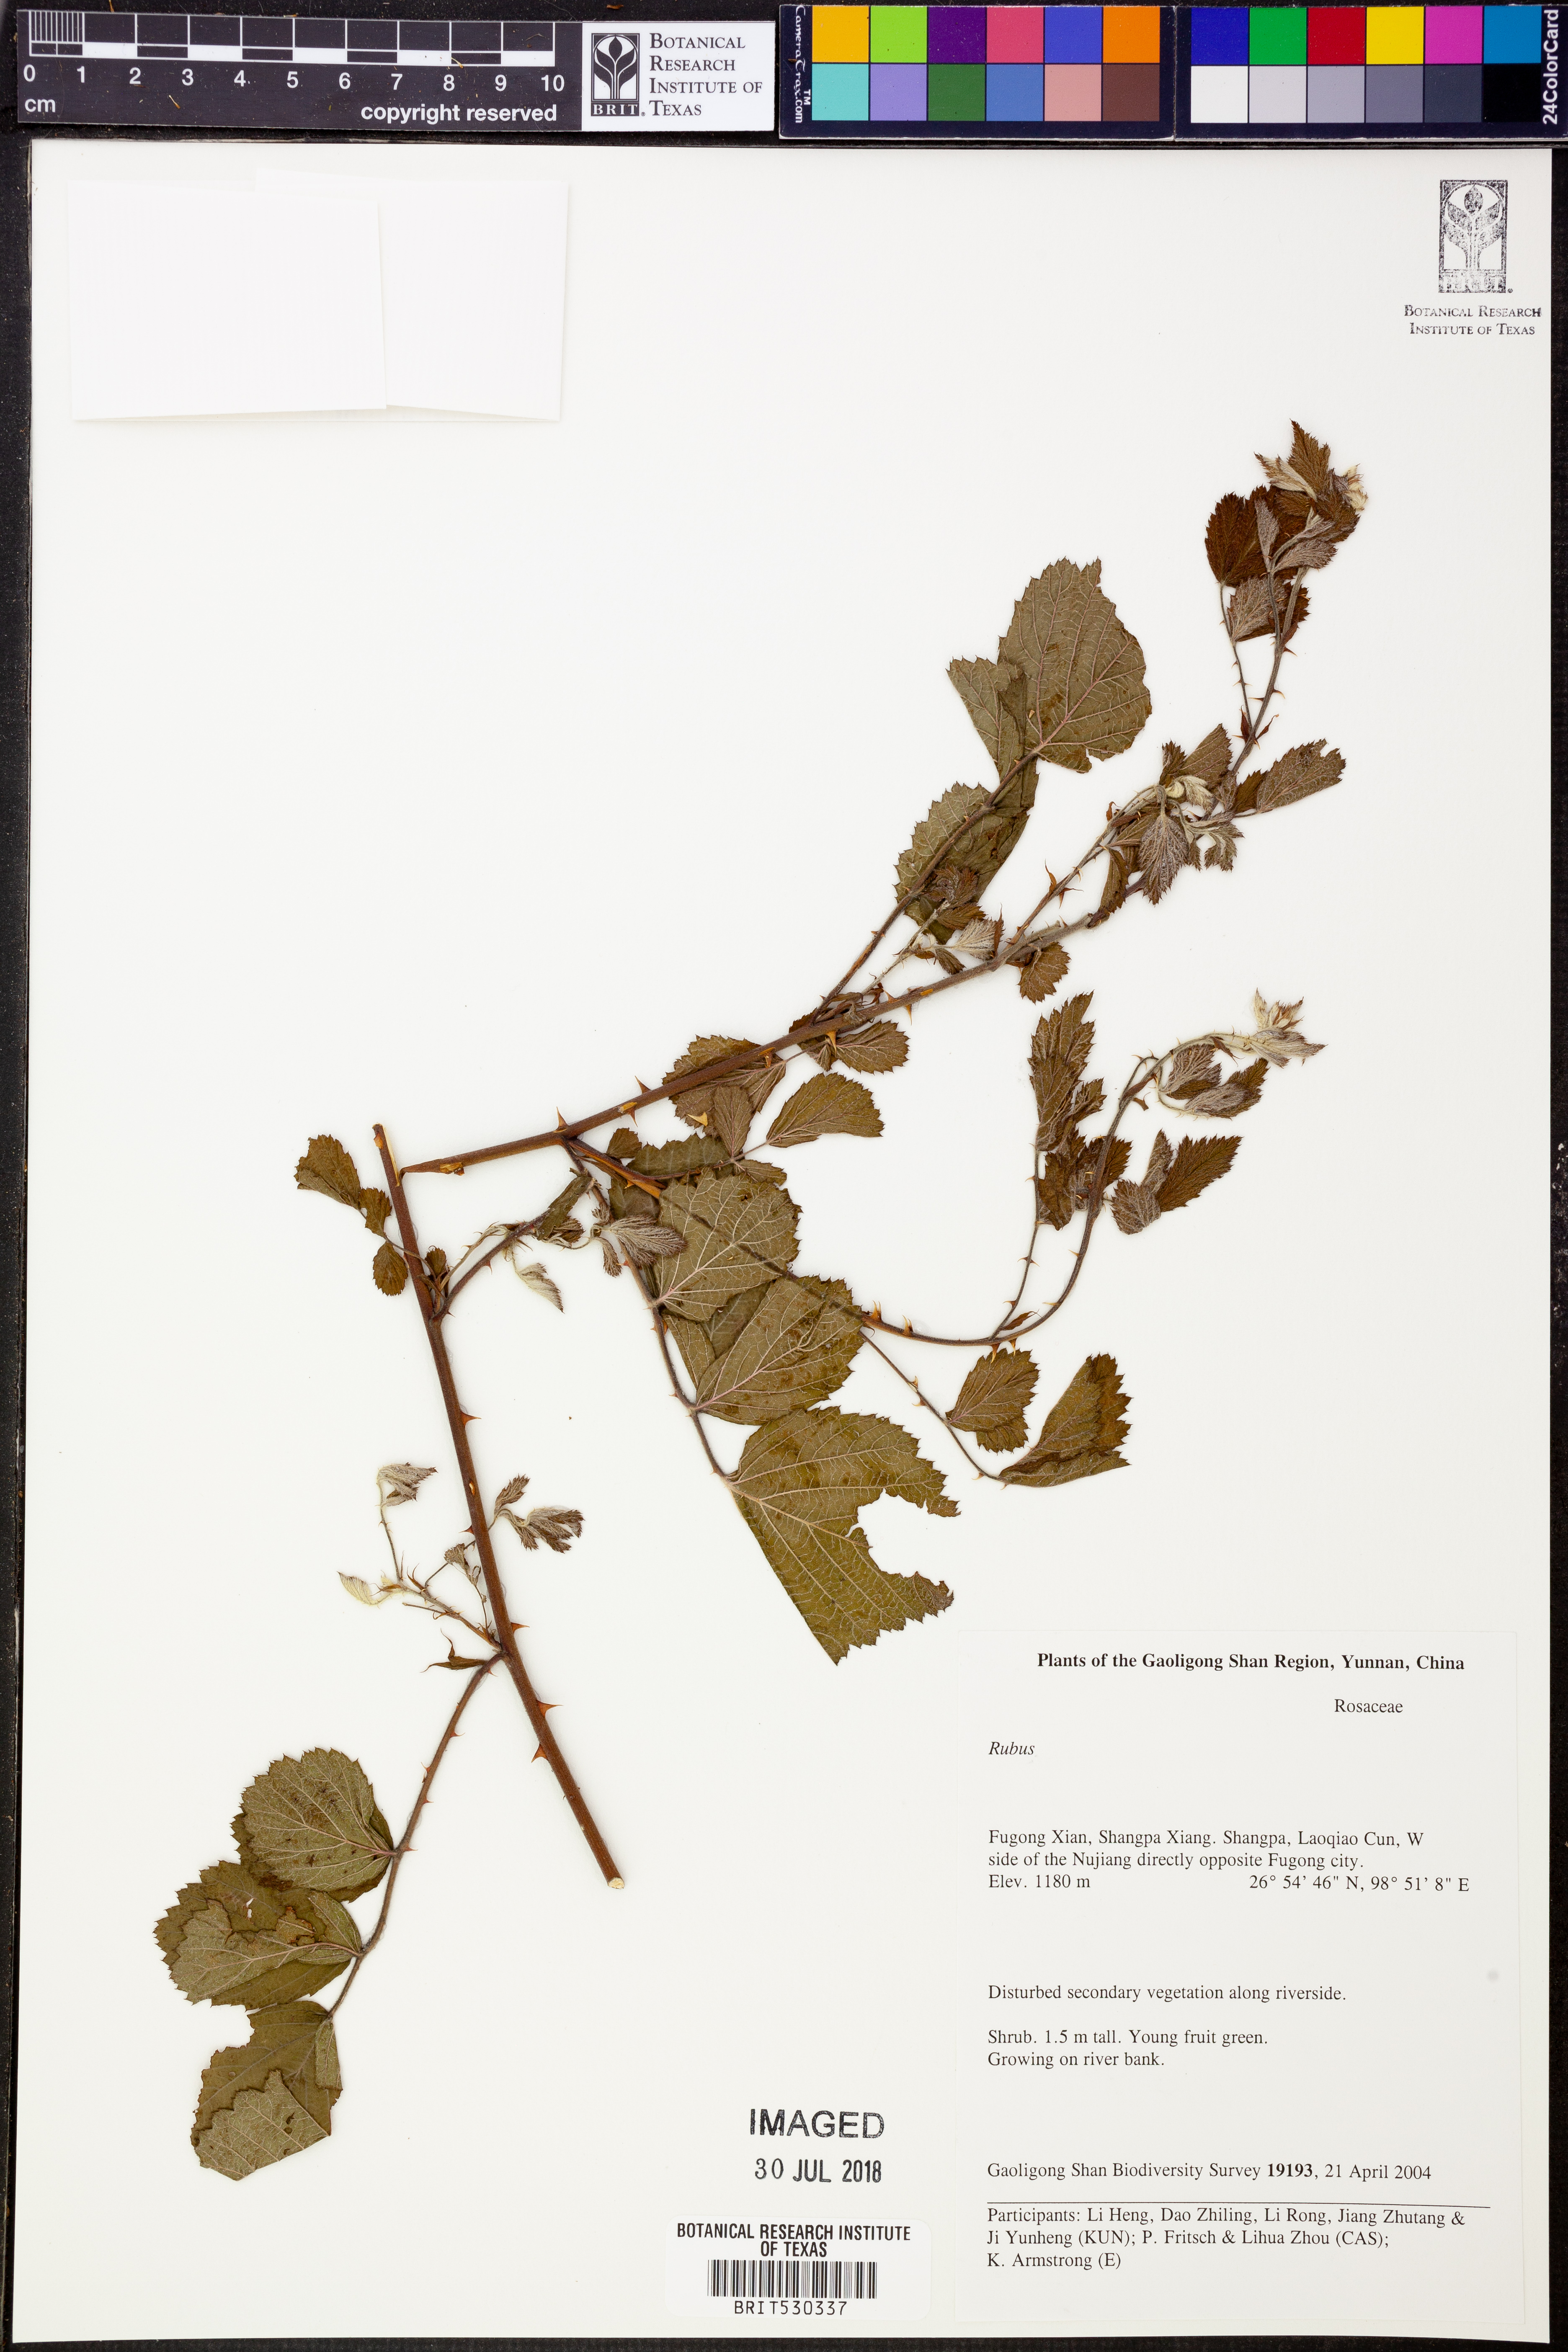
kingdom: Plantae
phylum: Tracheophyta
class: Magnoliopsida
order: Rosales
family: Rosaceae
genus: Rubus
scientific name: Rubus
